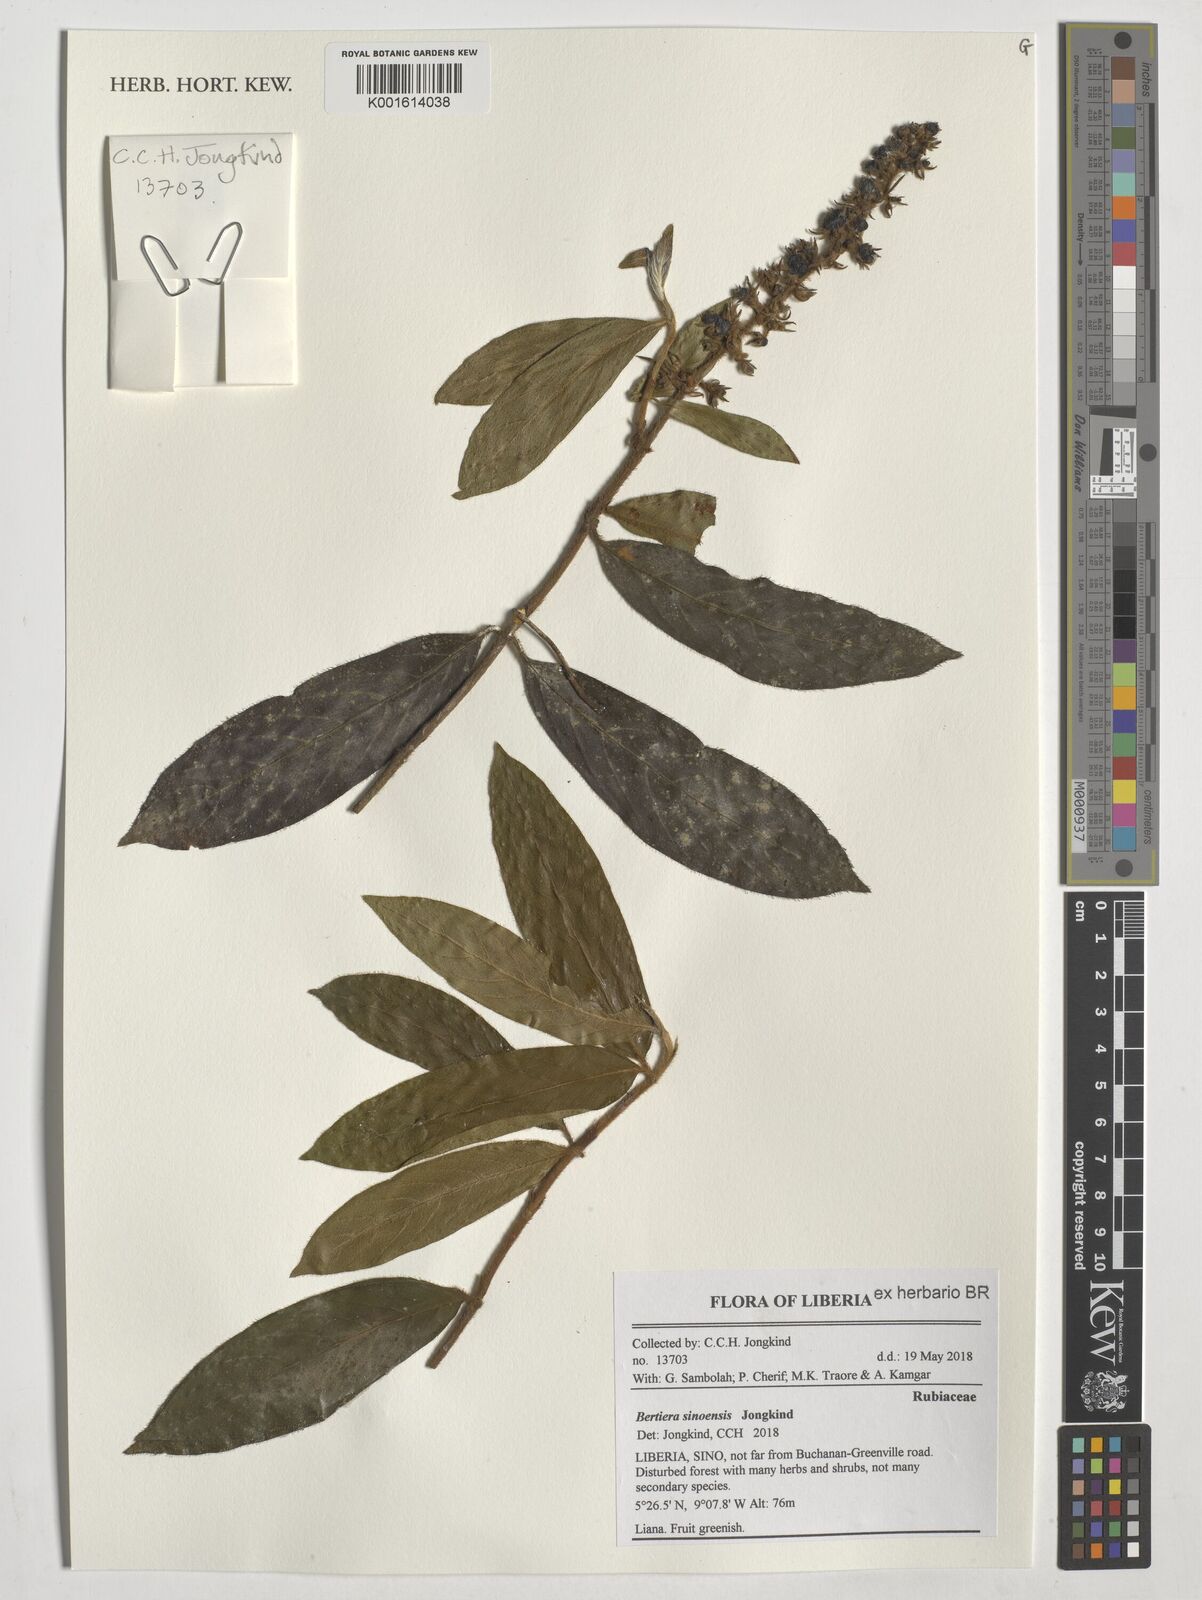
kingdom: Plantae
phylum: Tracheophyta
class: Magnoliopsida
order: Gentianales
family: Rubiaceae
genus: Bertiera
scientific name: Bertiera sinoensis
